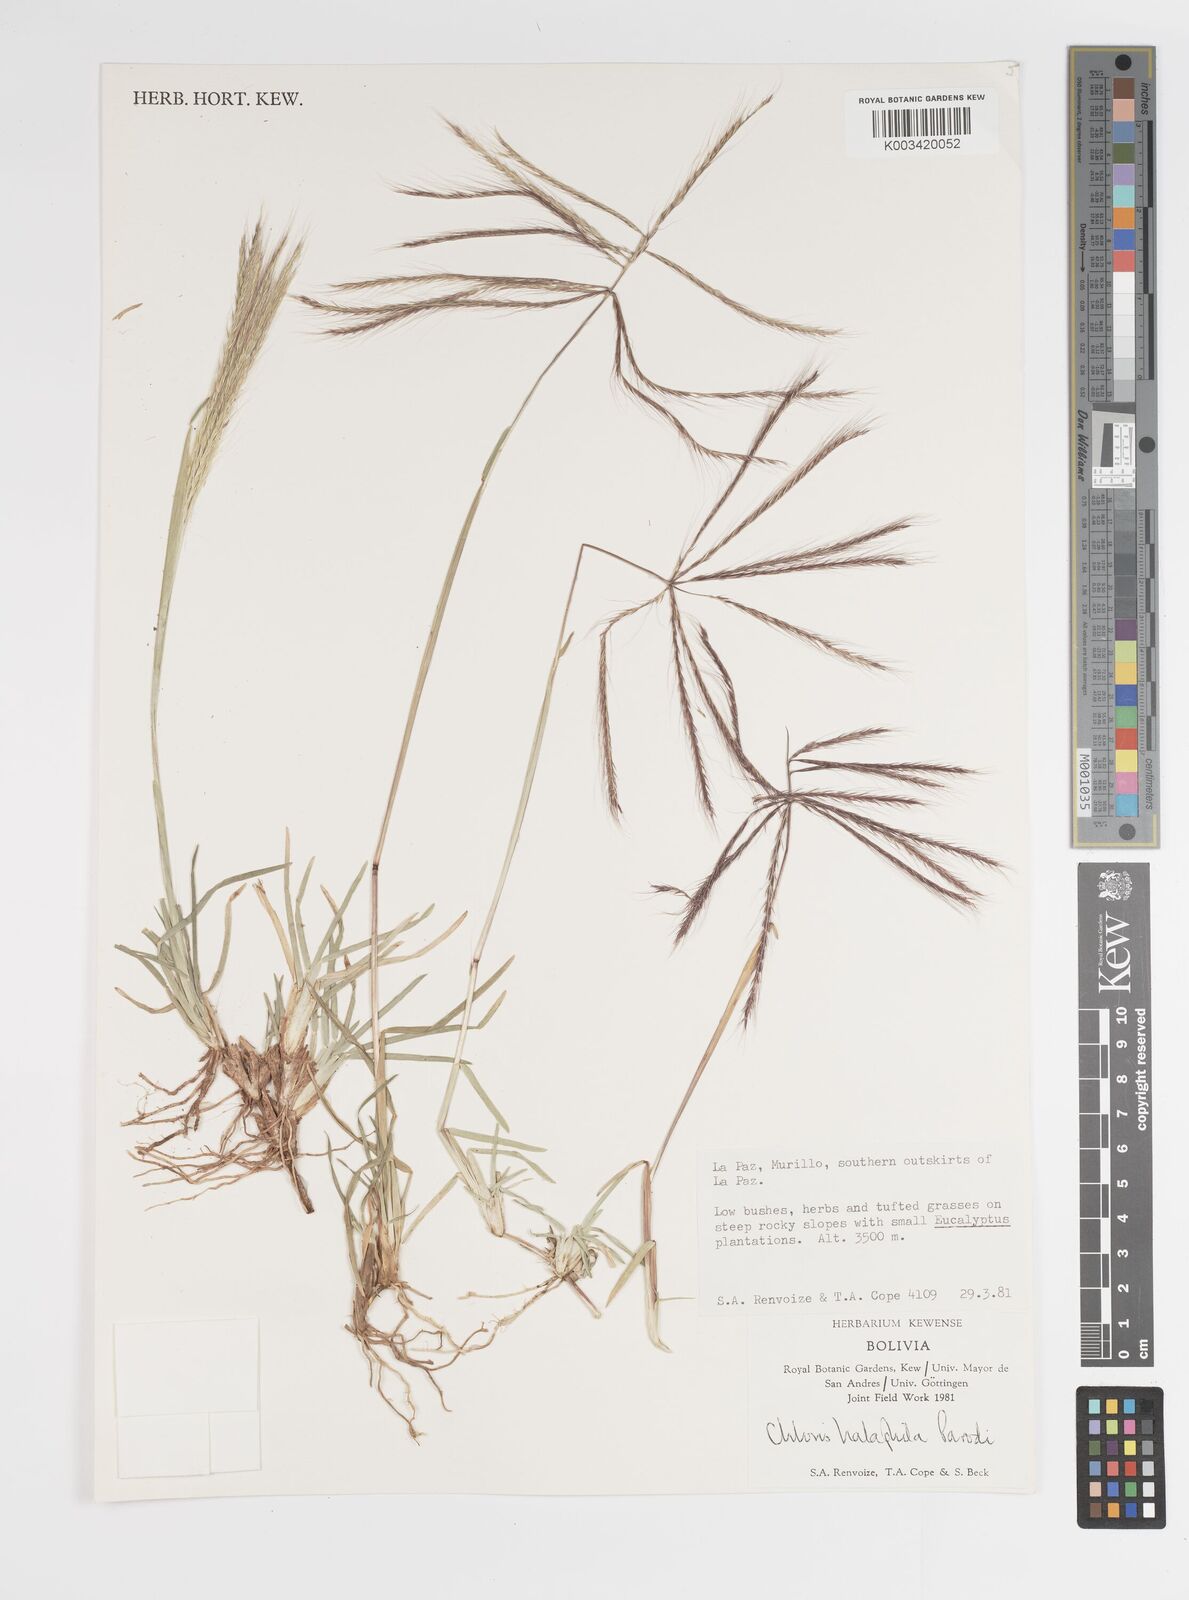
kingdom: Plantae
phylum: Tracheophyta
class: Liliopsida
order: Poales
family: Poaceae
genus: Chloris
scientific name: Chloris halophila
